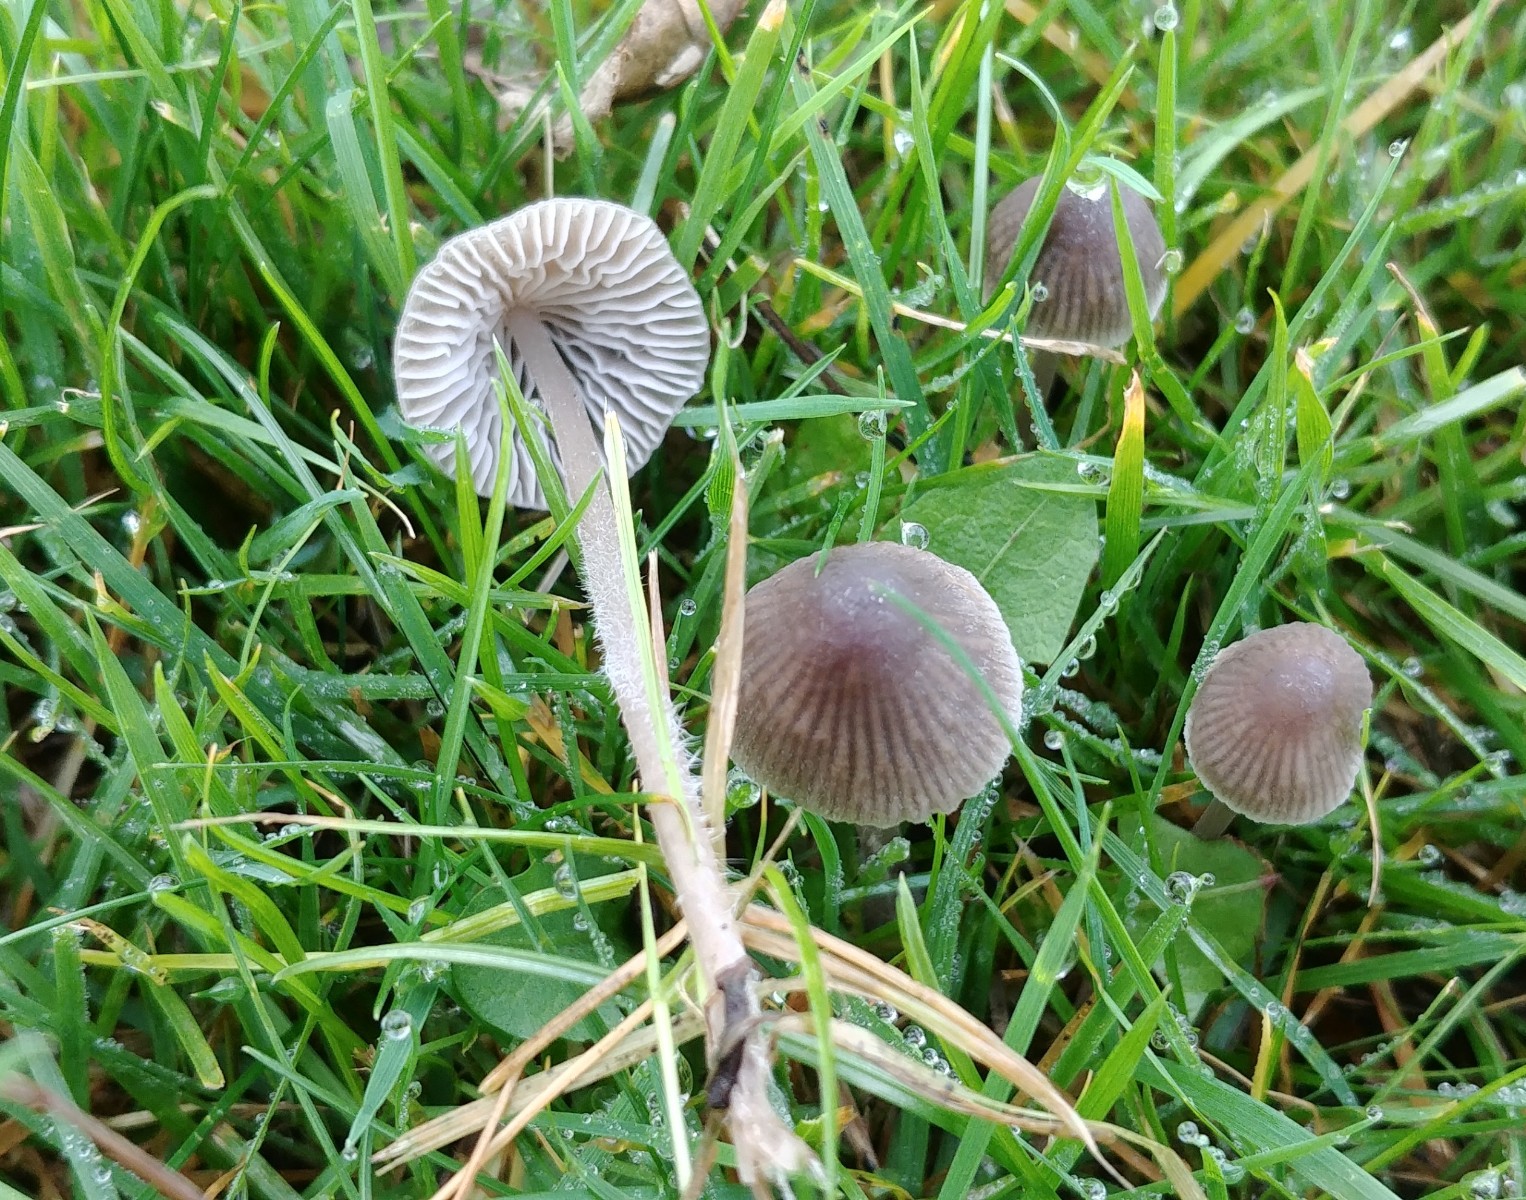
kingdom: Fungi
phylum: Basidiomycota
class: Agaricomycetes
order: Agaricales
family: Mycenaceae
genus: Mycena
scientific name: Mycena
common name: huesvamp
